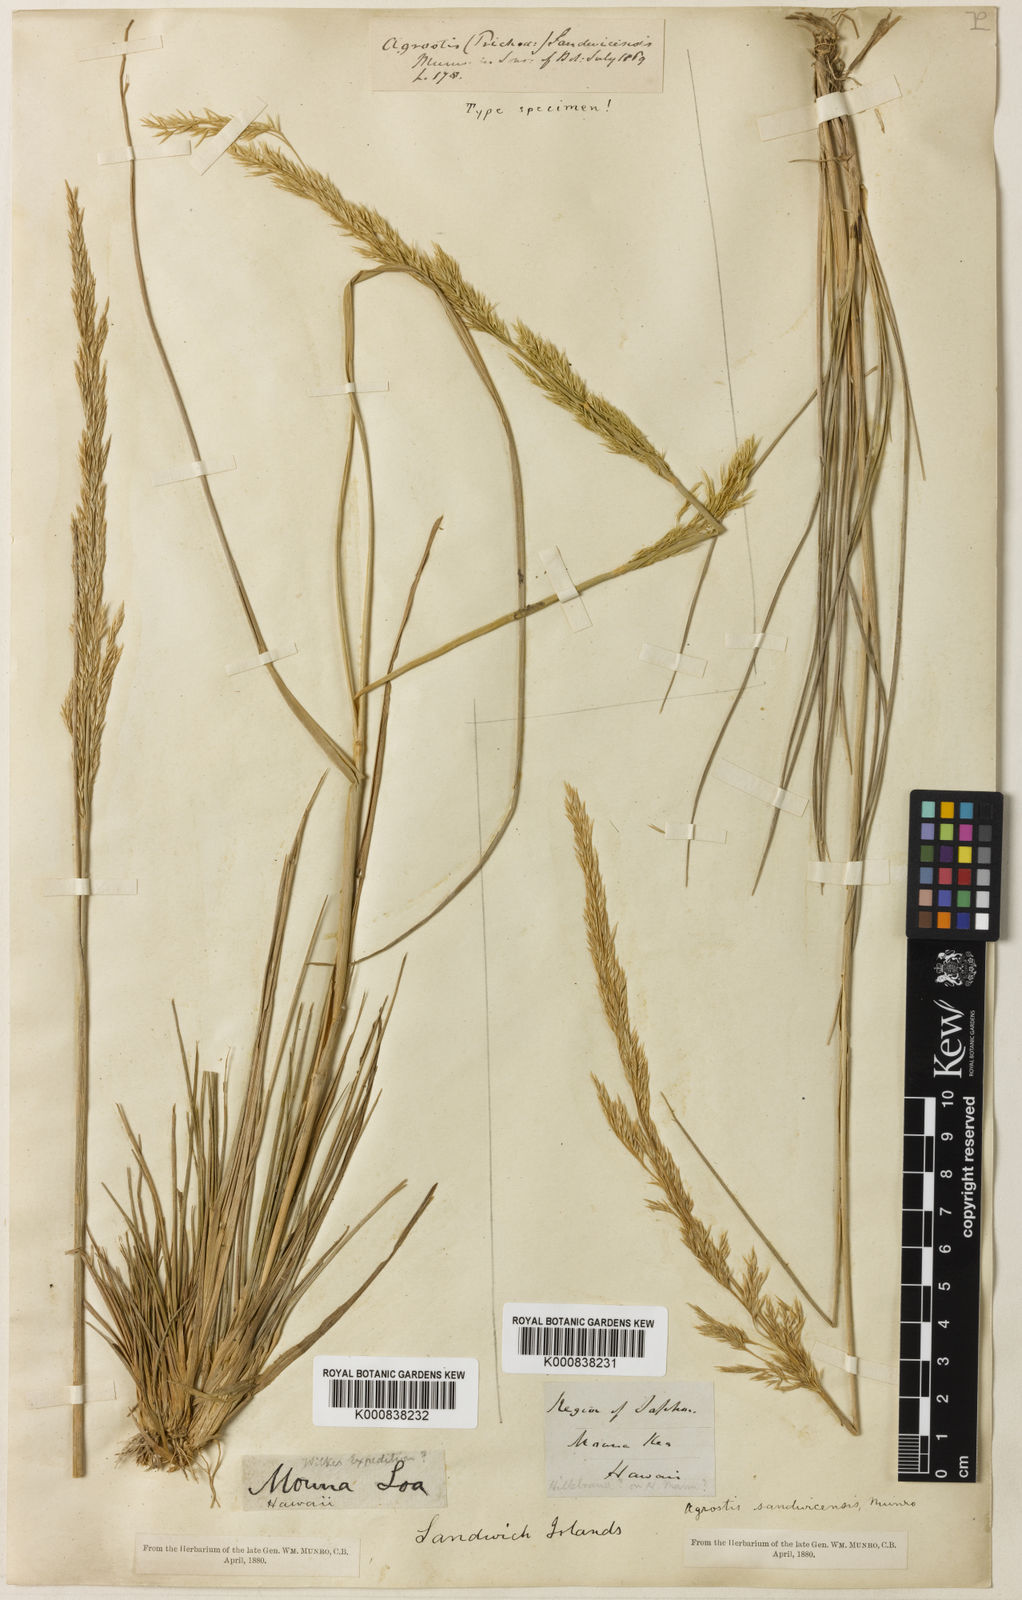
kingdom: Plantae
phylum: Tracheophyta
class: Liliopsida
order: Poales
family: Poaceae
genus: Agrostis
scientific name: Agrostis
